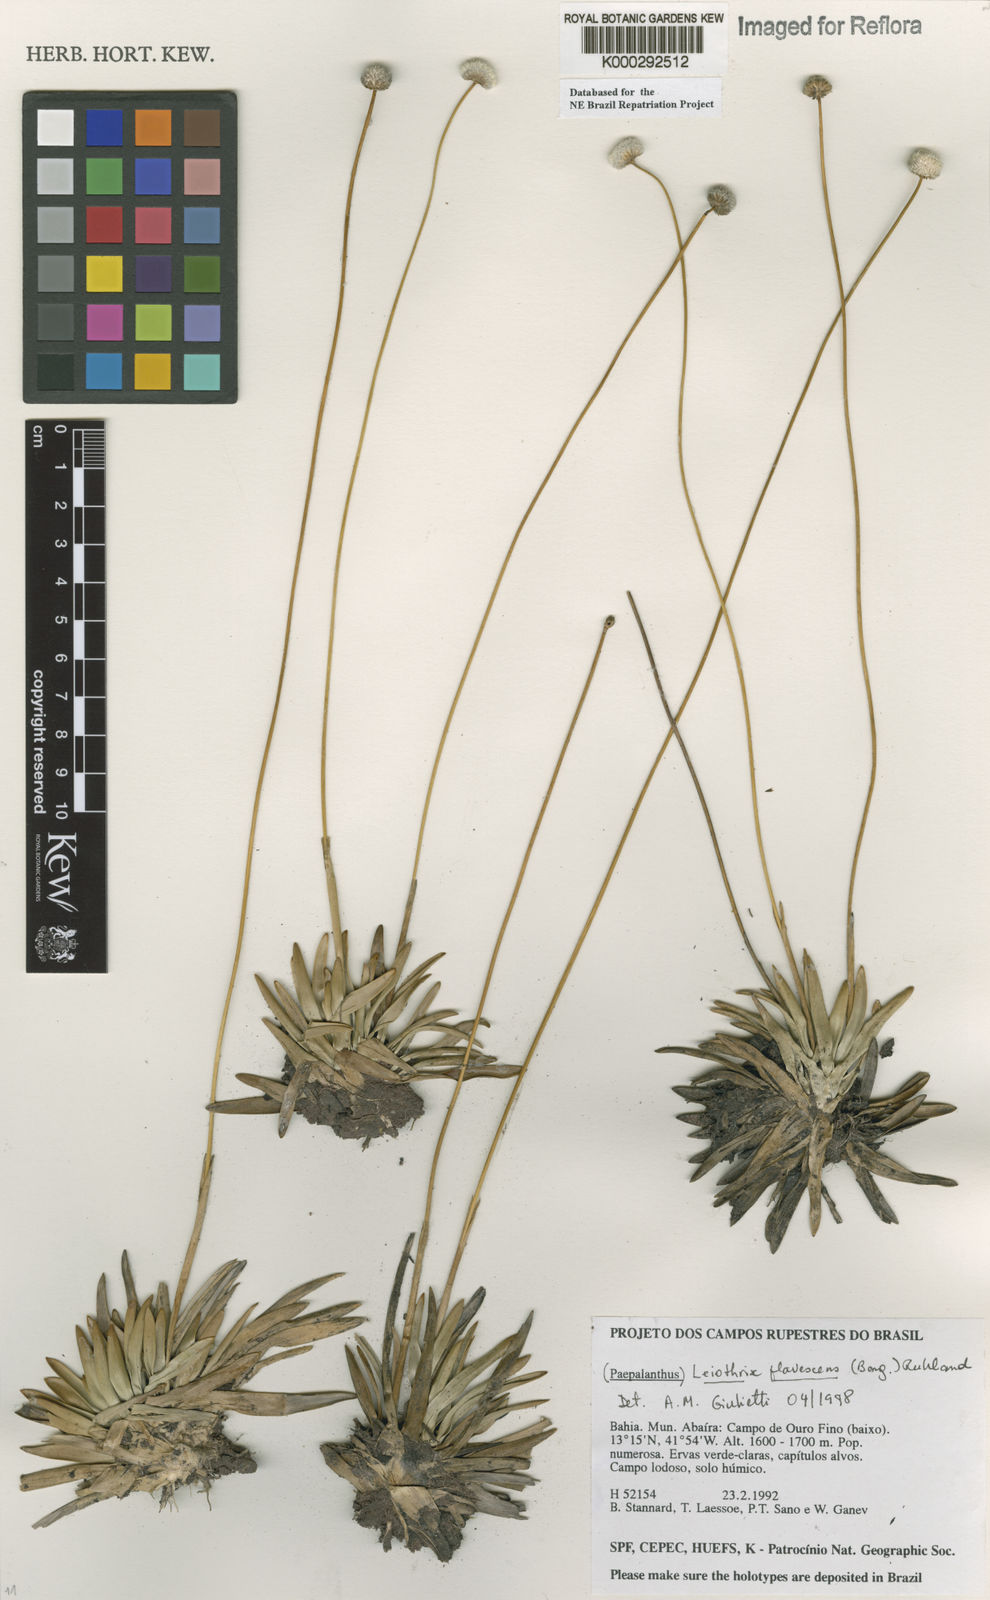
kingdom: Plantae
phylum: Tracheophyta
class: Liliopsida
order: Poales
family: Eriocaulaceae
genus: Leiothrix
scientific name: Leiothrix flavescens
